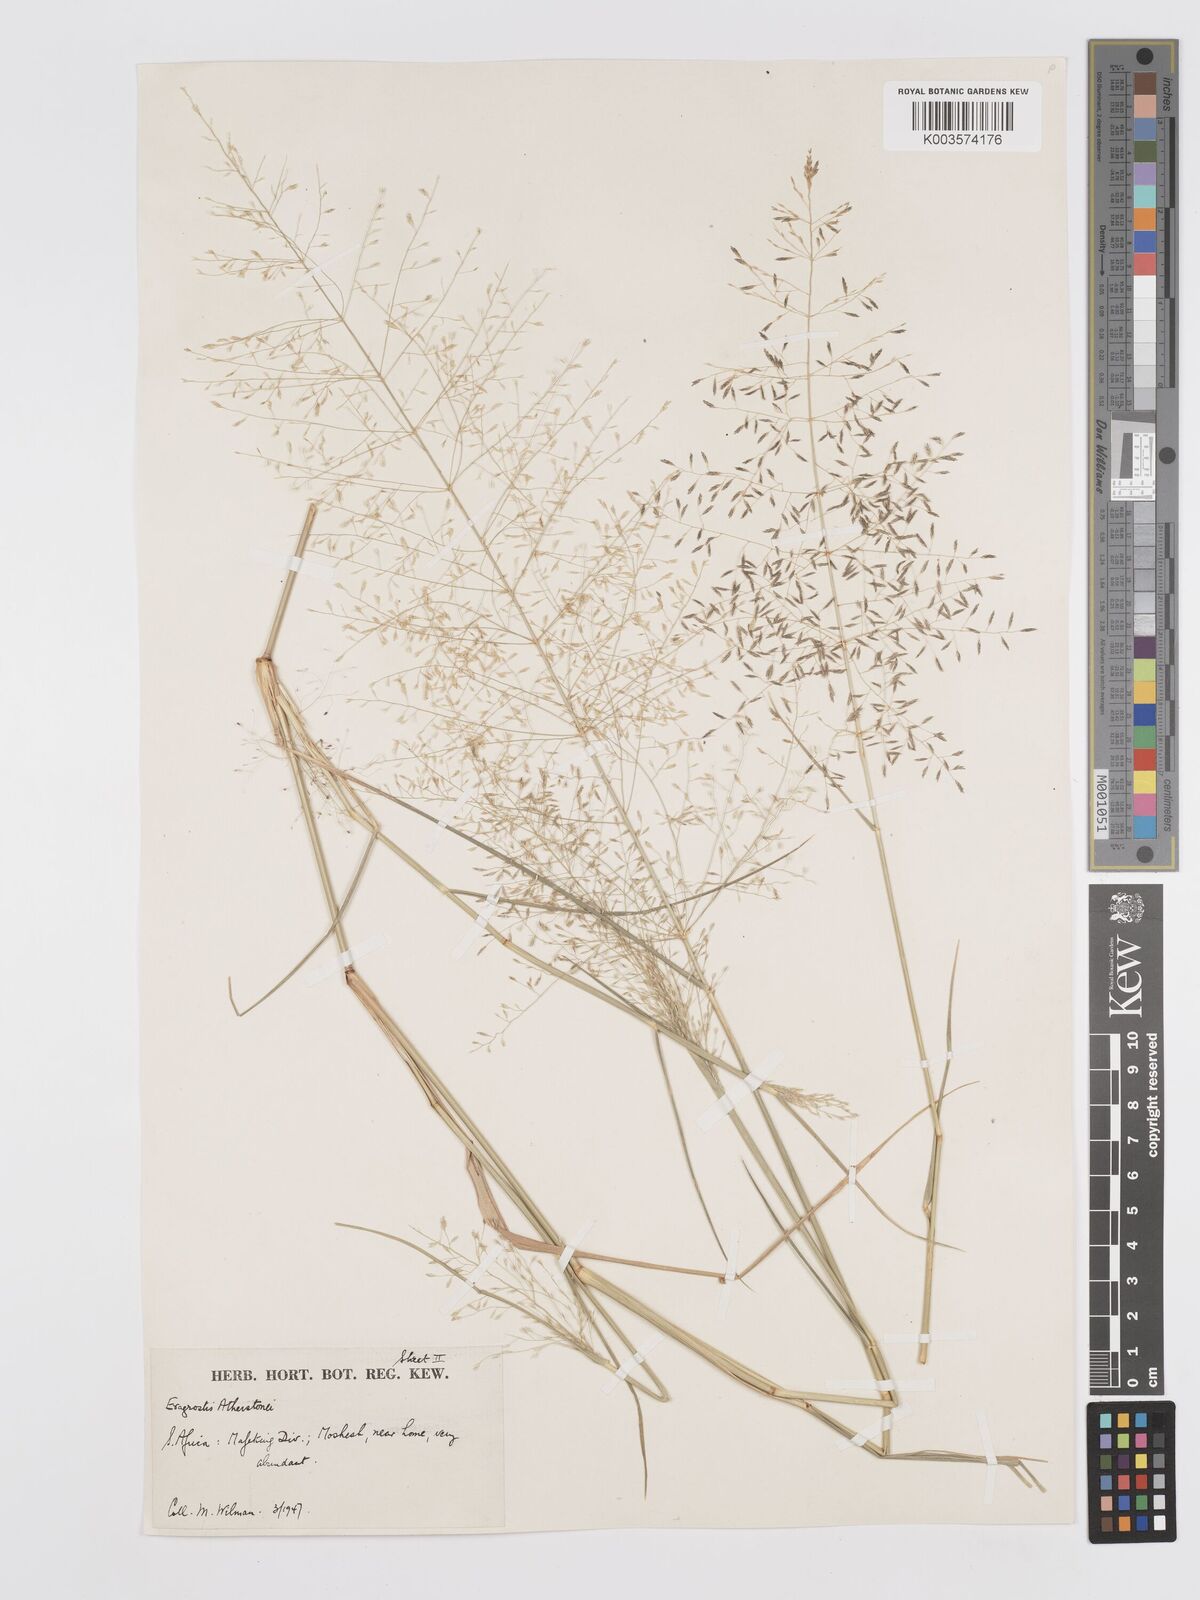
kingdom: Plantae
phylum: Tracheophyta
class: Liliopsida
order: Poales
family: Poaceae
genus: Eragrostis
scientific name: Eragrostis cylindriflora
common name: Cylinderflower lovegrass
